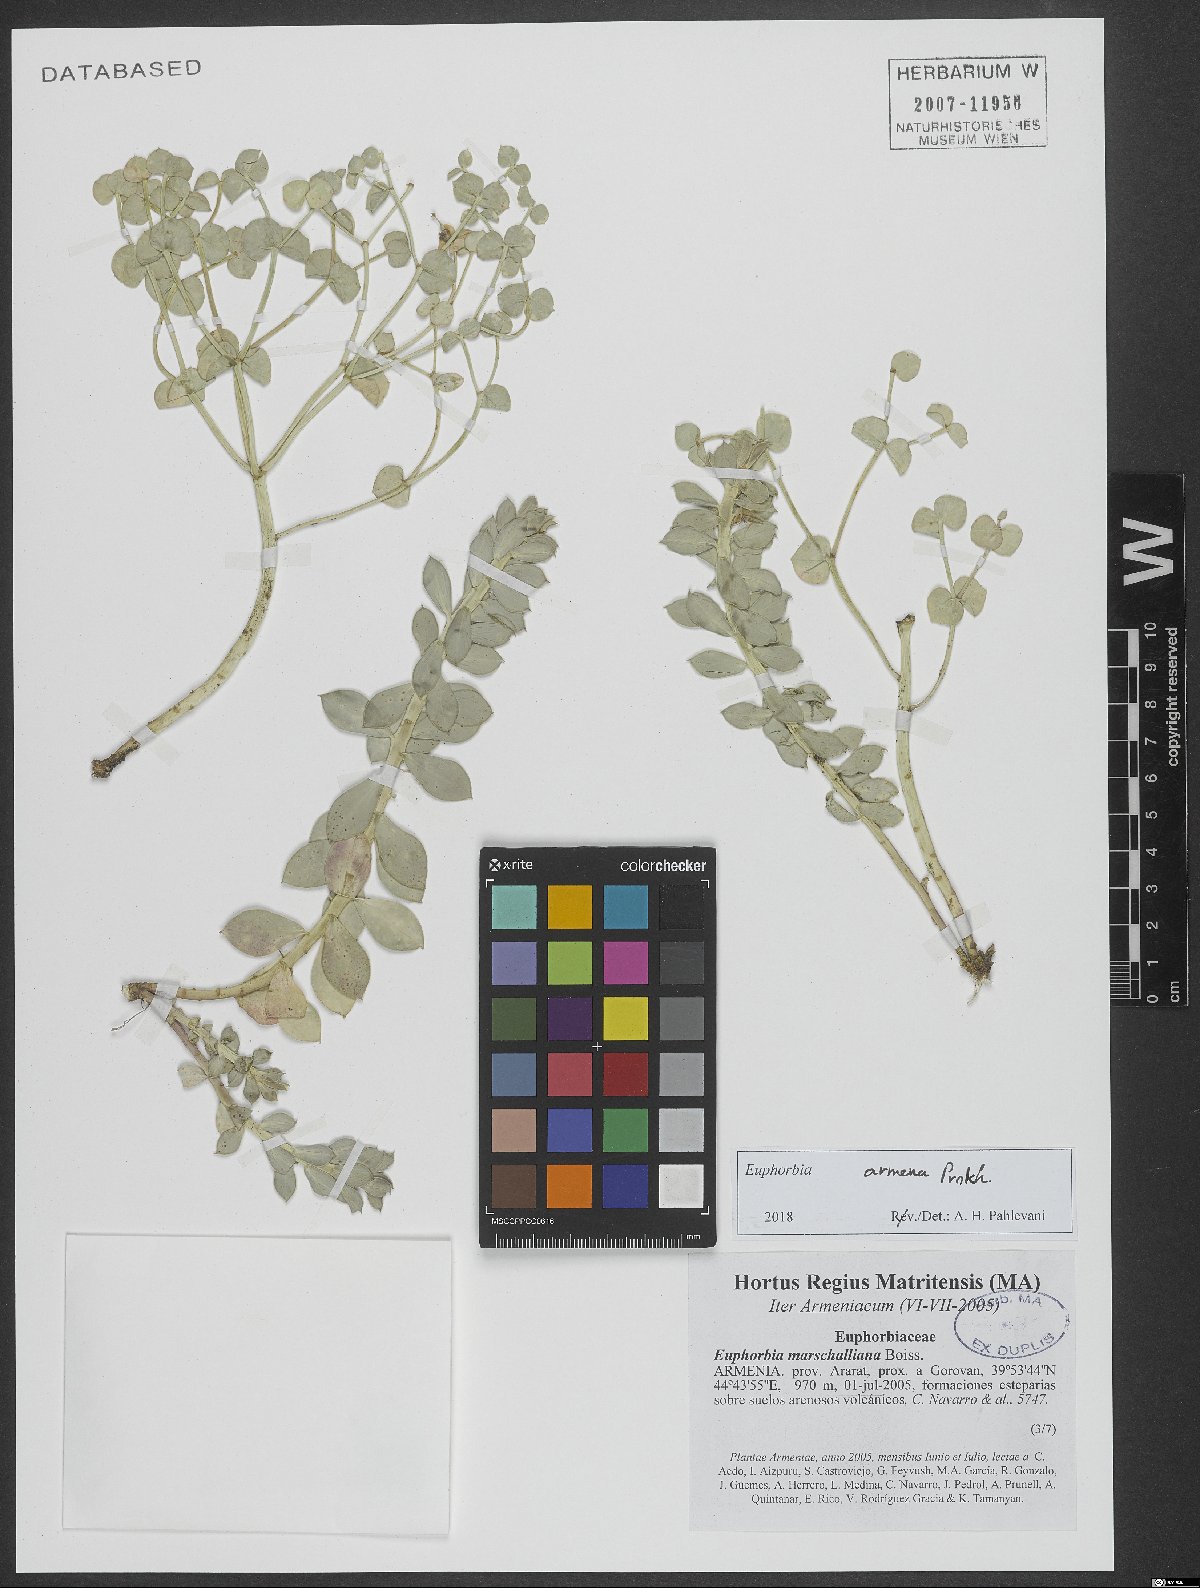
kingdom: Plantae
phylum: Tracheophyta
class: Magnoliopsida
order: Malpighiales
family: Euphorbiaceae
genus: Euphorbia
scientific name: Euphorbia marschalliana
